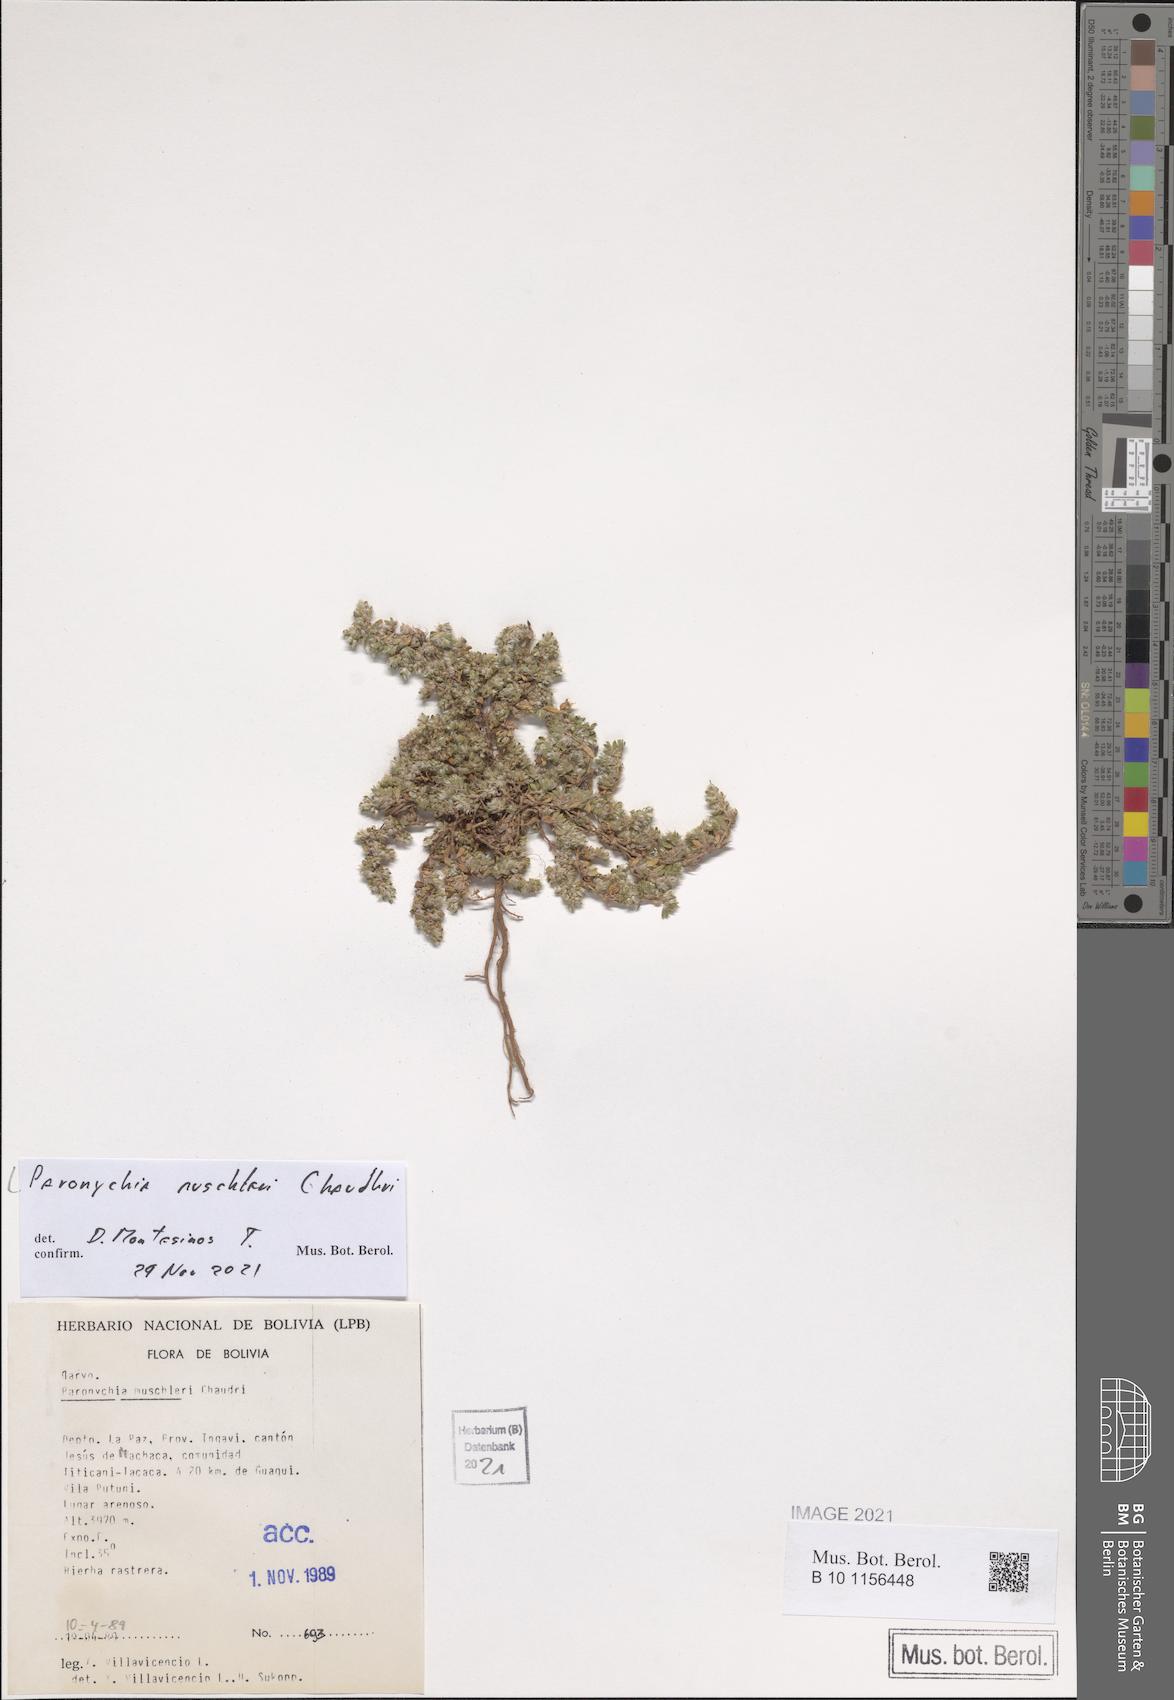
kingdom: Plantae
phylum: Tracheophyta
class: Magnoliopsida
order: Caryophyllales
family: Caryophyllaceae
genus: Paronychia
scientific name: Paronychia muschleri
